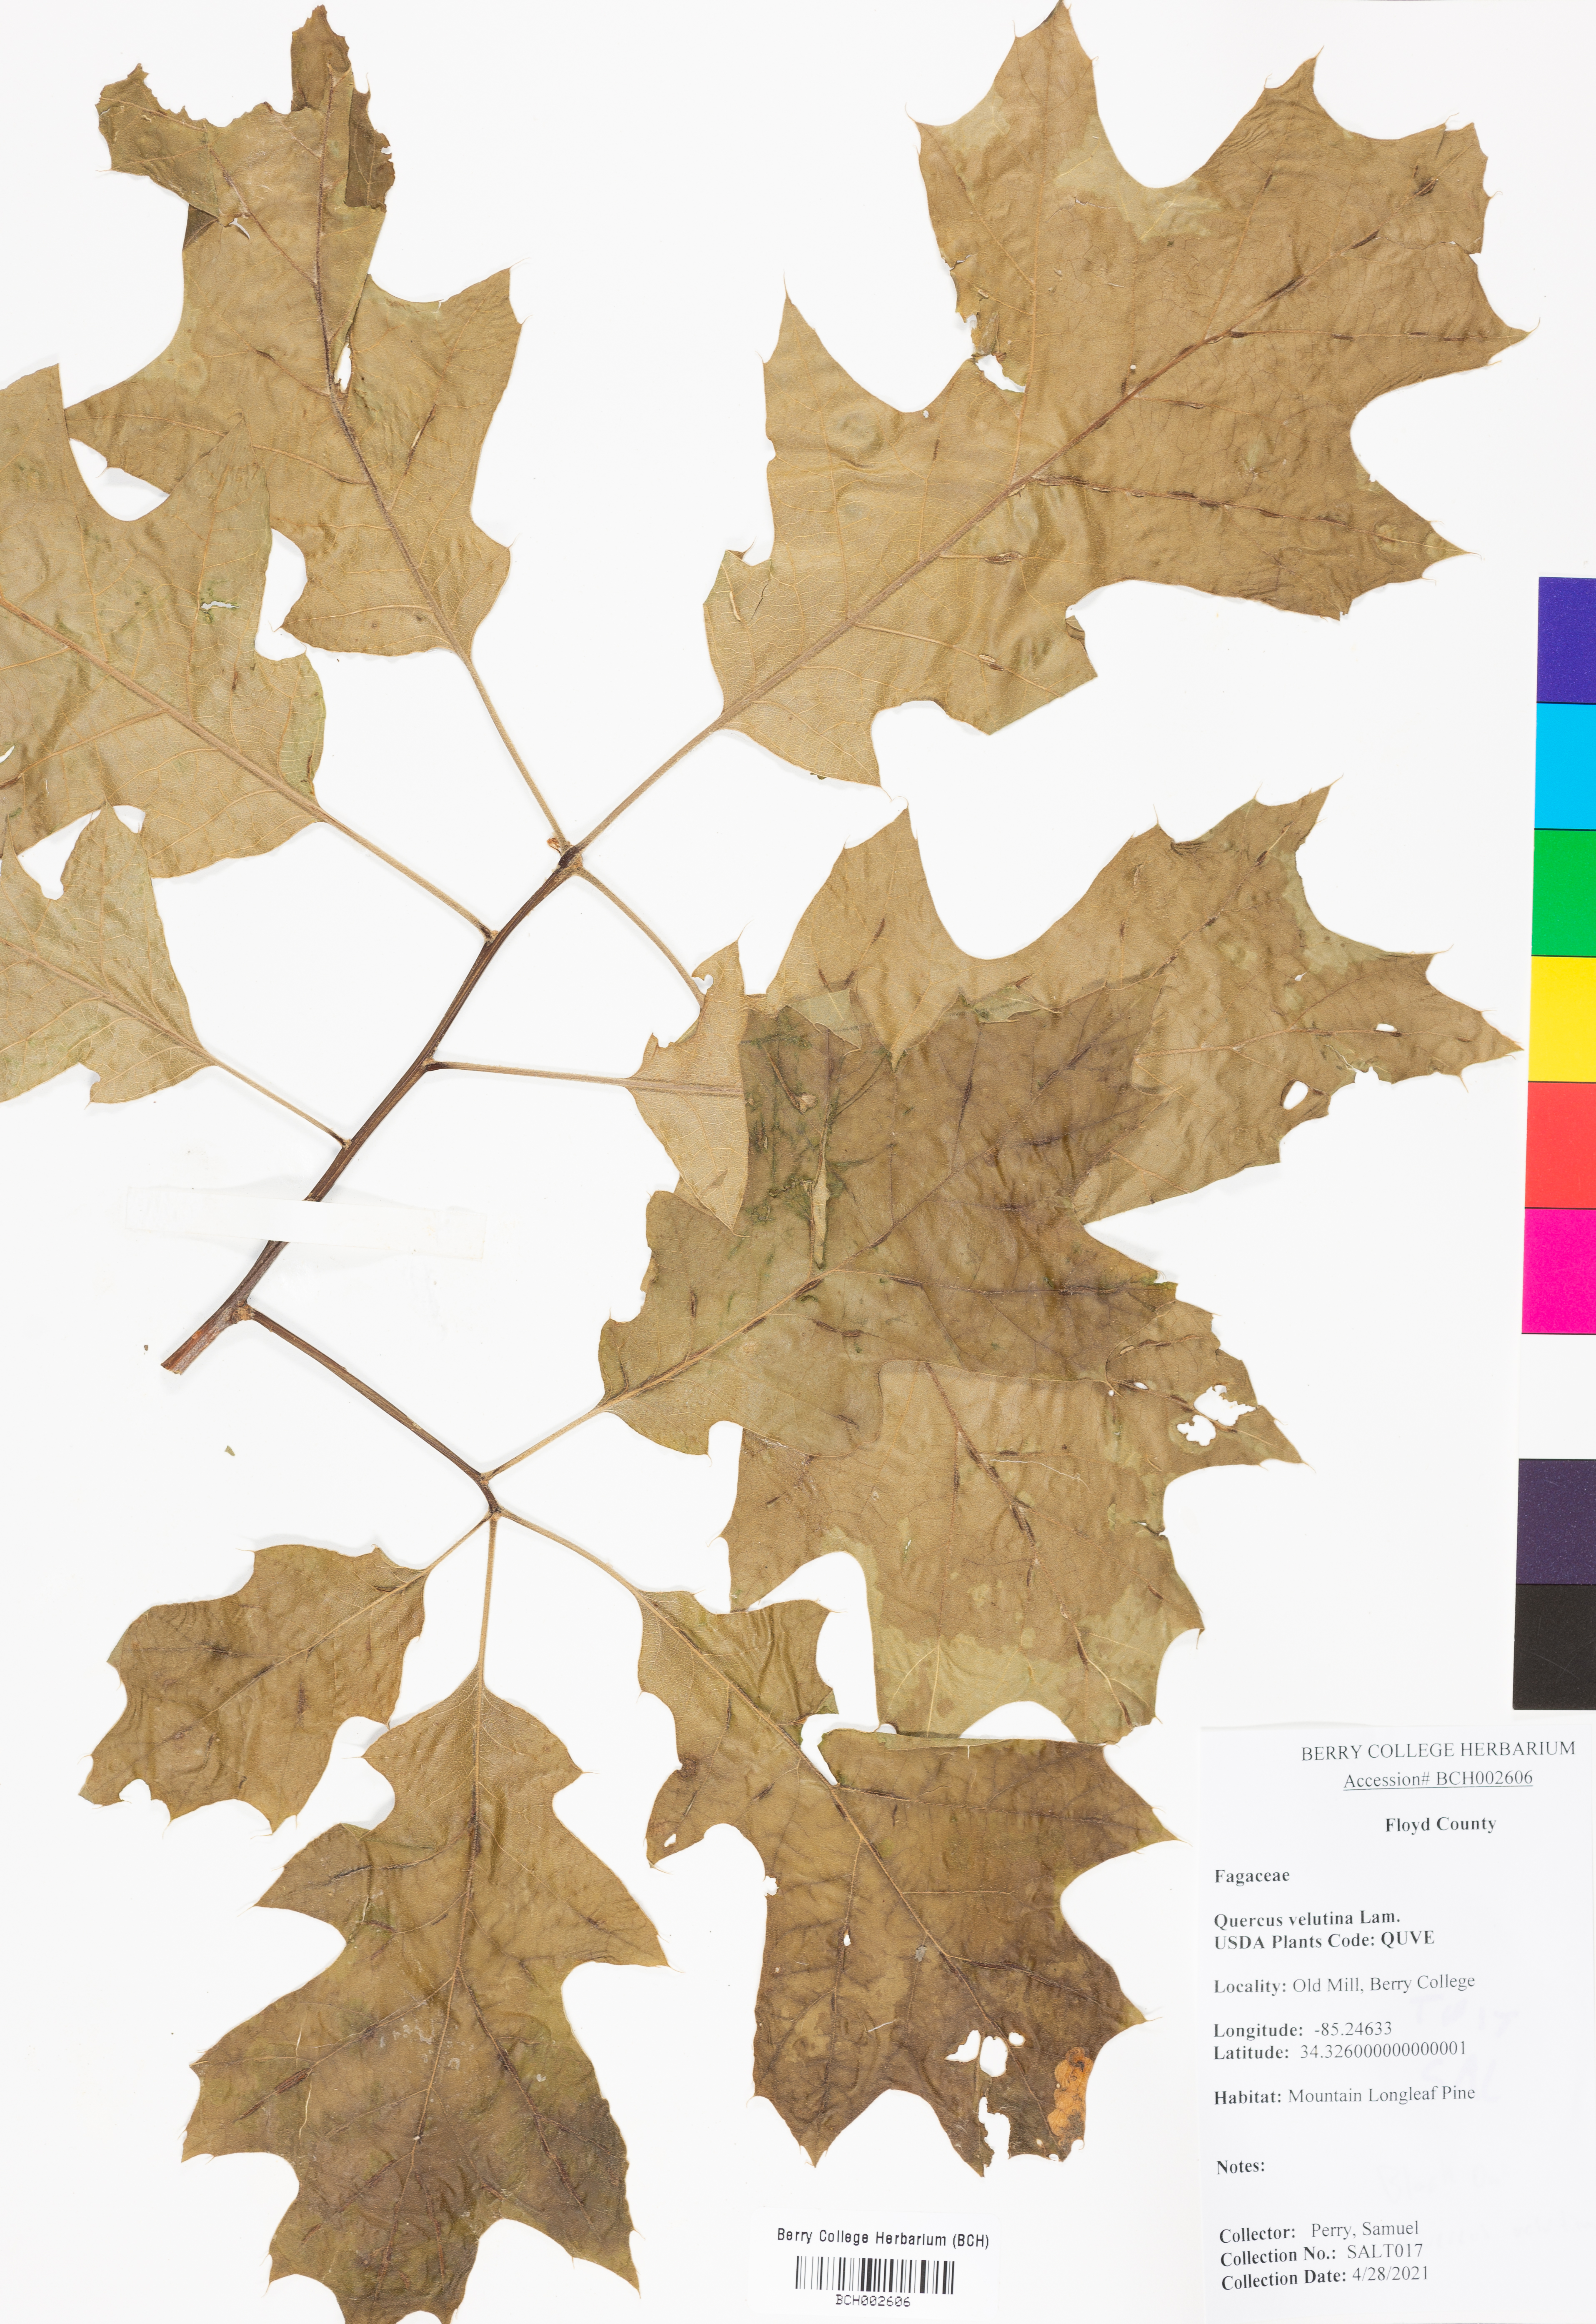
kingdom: Plantae
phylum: Tracheophyta
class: Magnoliopsida
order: Fagales
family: Fagaceae
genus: Quercus
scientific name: Quercus velutina
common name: Black oak
